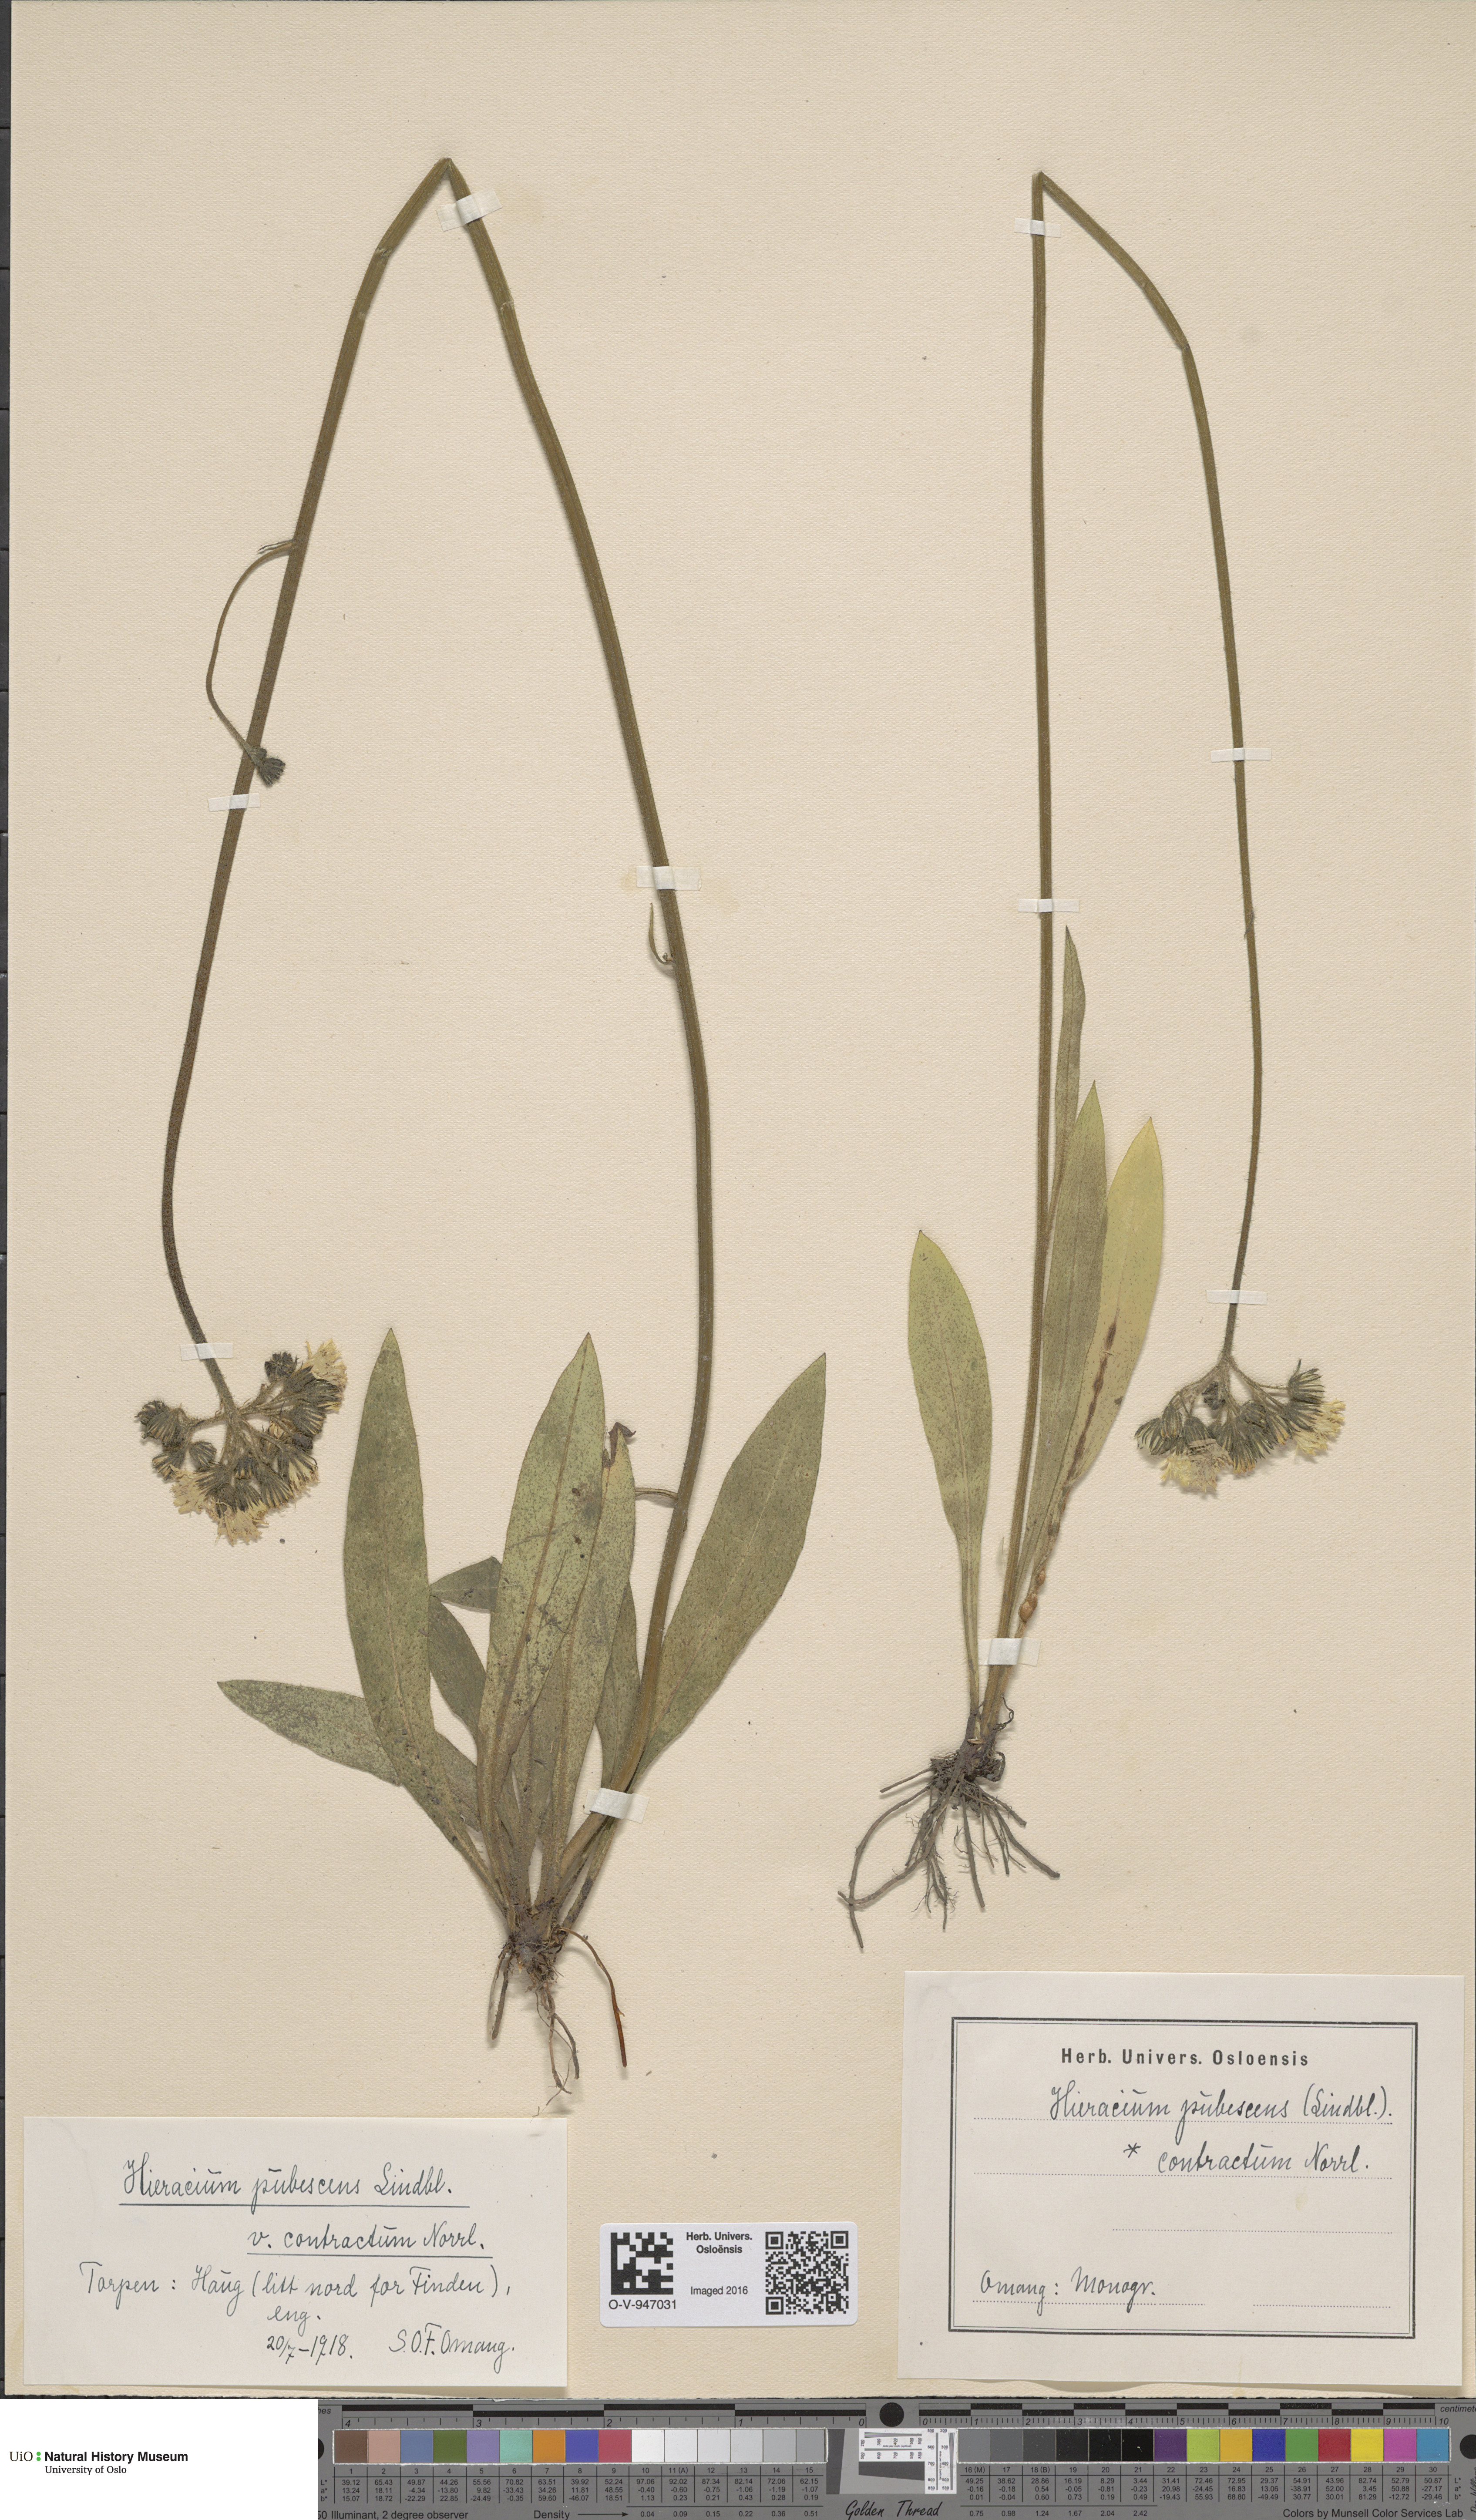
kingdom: Plantae
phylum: Tracheophyta
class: Magnoliopsida
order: Asterales
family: Asteraceae
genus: Pilosella
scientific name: Pilosella cymosa
